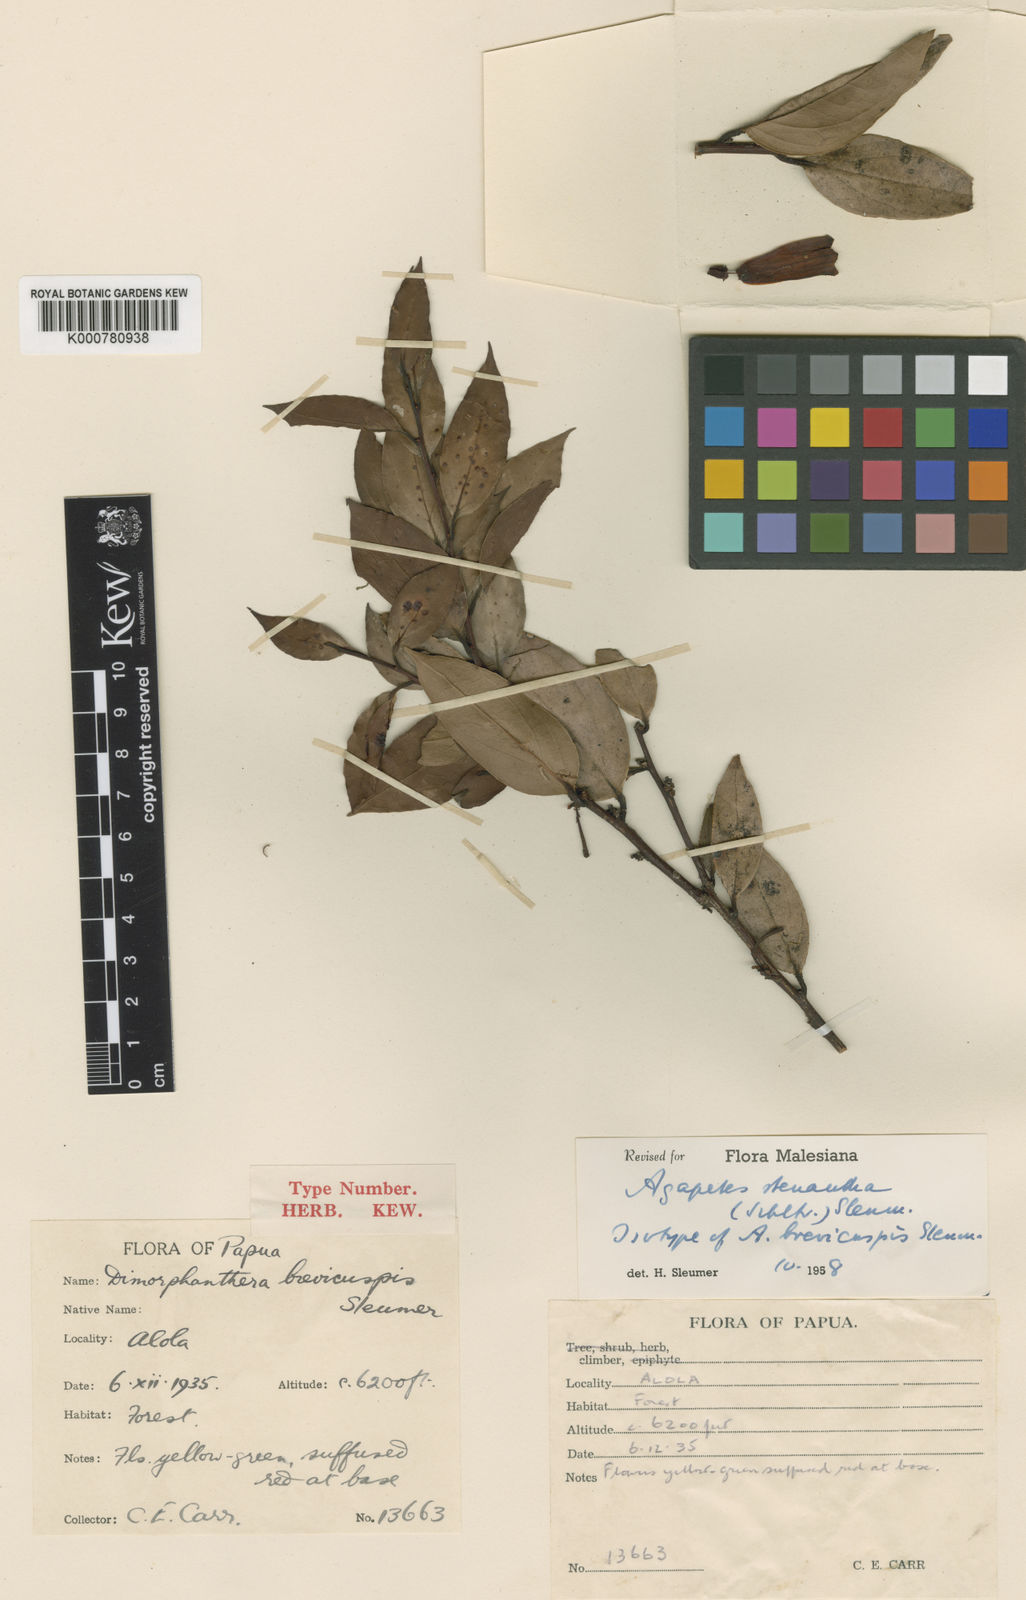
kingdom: Plantae
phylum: Tracheophyta
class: Magnoliopsida
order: Ericales
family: Ericaceae
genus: Paphia
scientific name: Paphia stenantha
